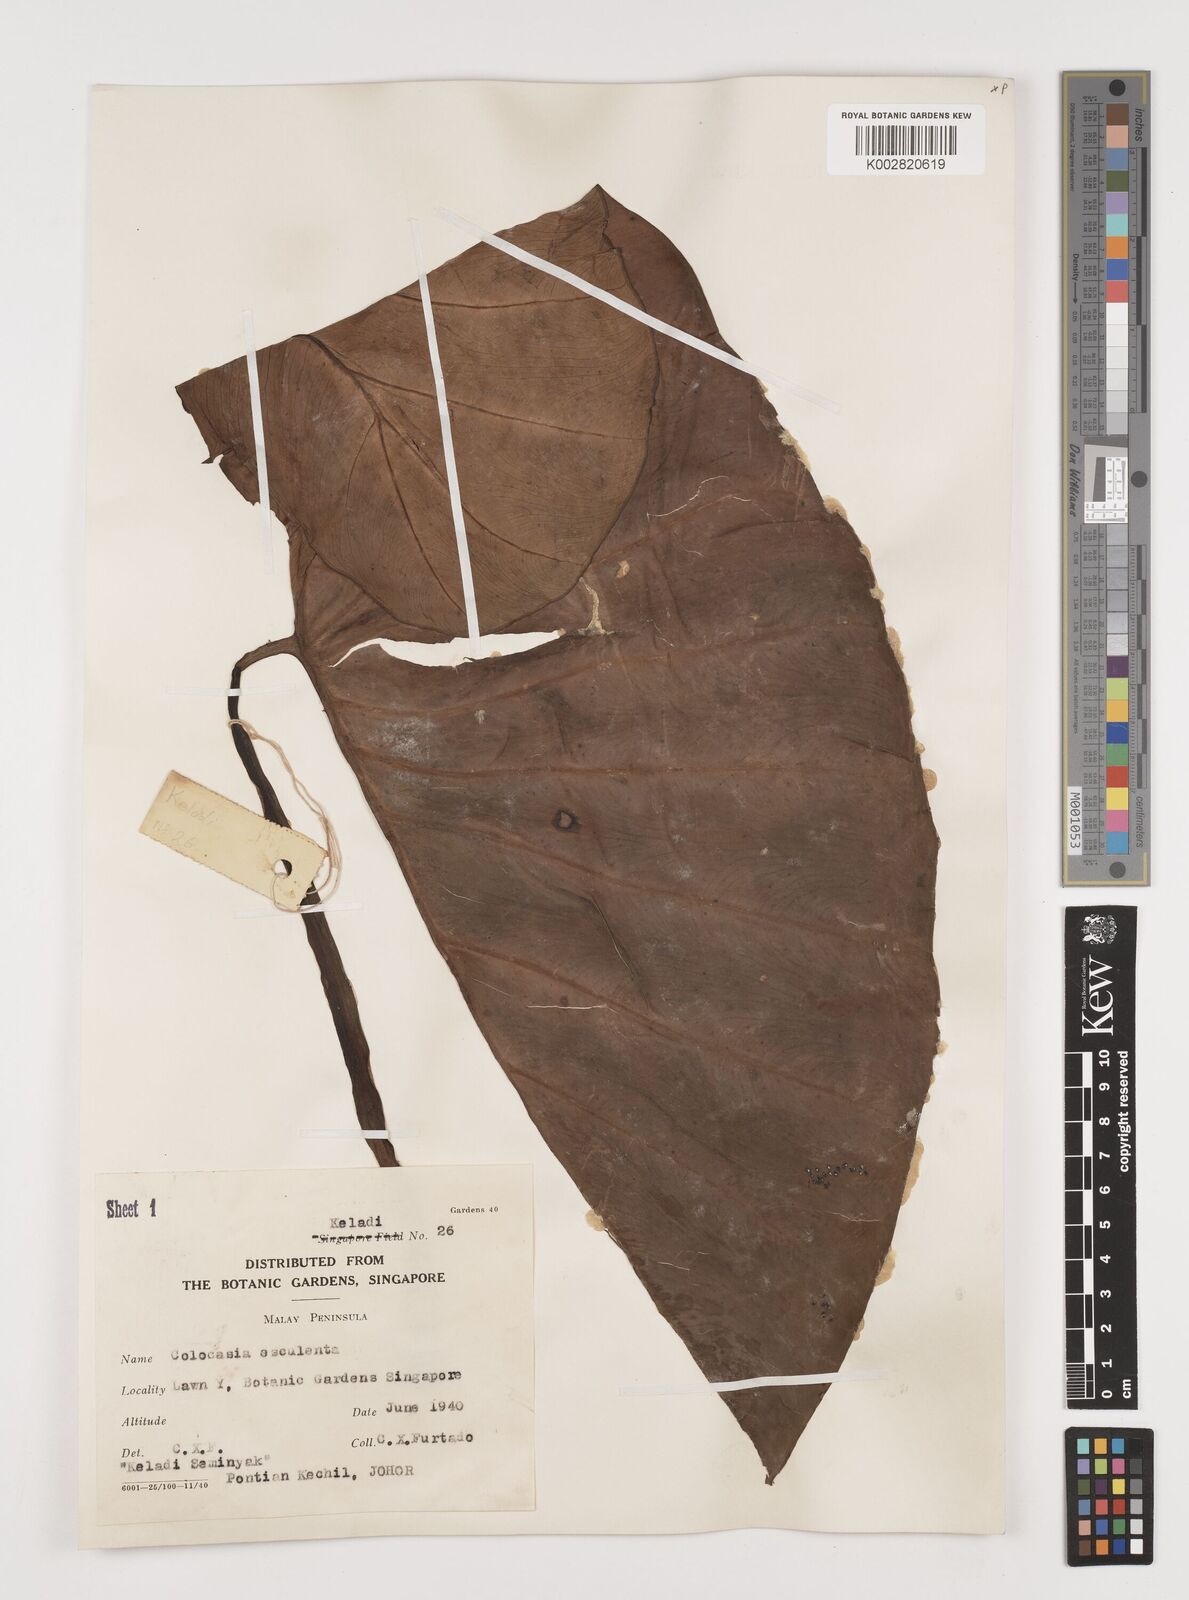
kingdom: Plantae
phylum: Tracheophyta
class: Liliopsida
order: Alismatales
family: Araceae
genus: Colocasia
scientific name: Colocasia esculenta
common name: Taro
